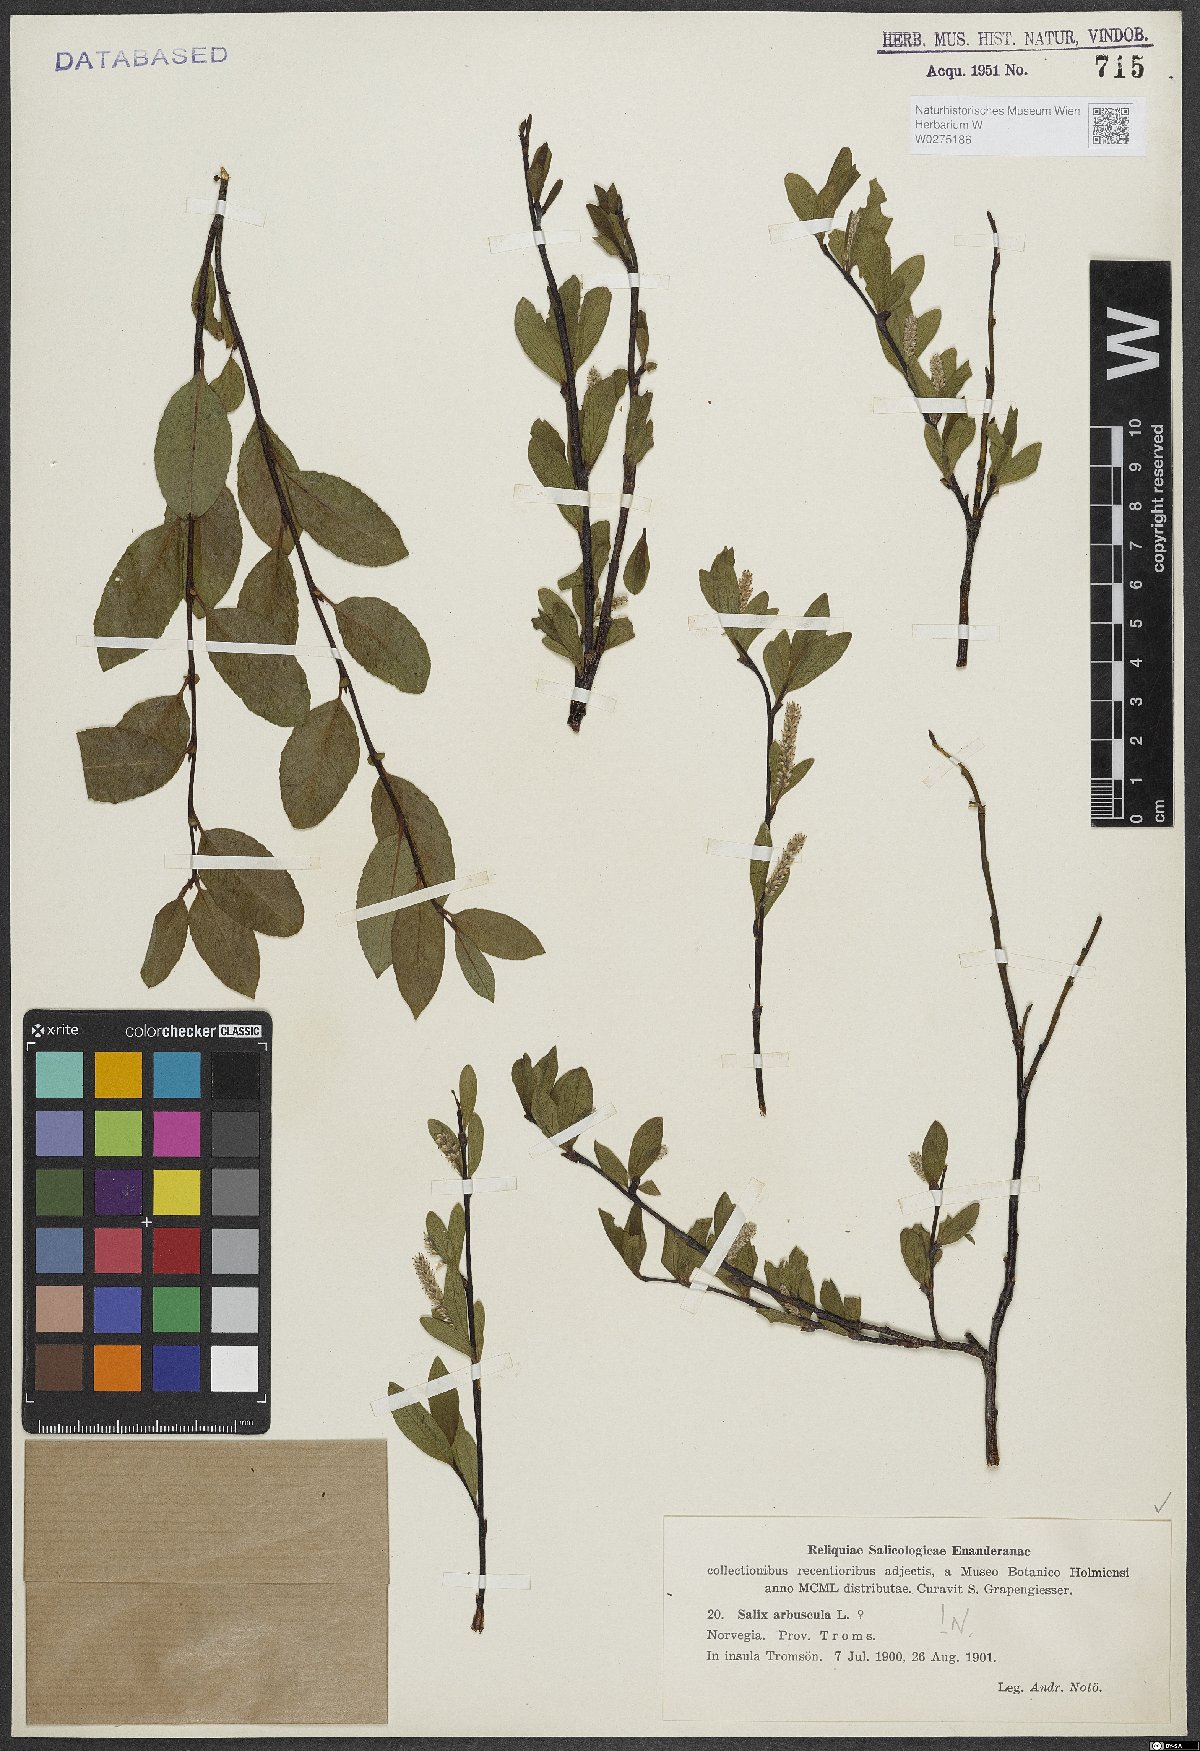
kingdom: Plantae
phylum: Tracheophyta
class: Magnoliopsida
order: Malpighiales
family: Salicaceae
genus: Salix
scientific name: Salix arbuscula
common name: Mountain willow
